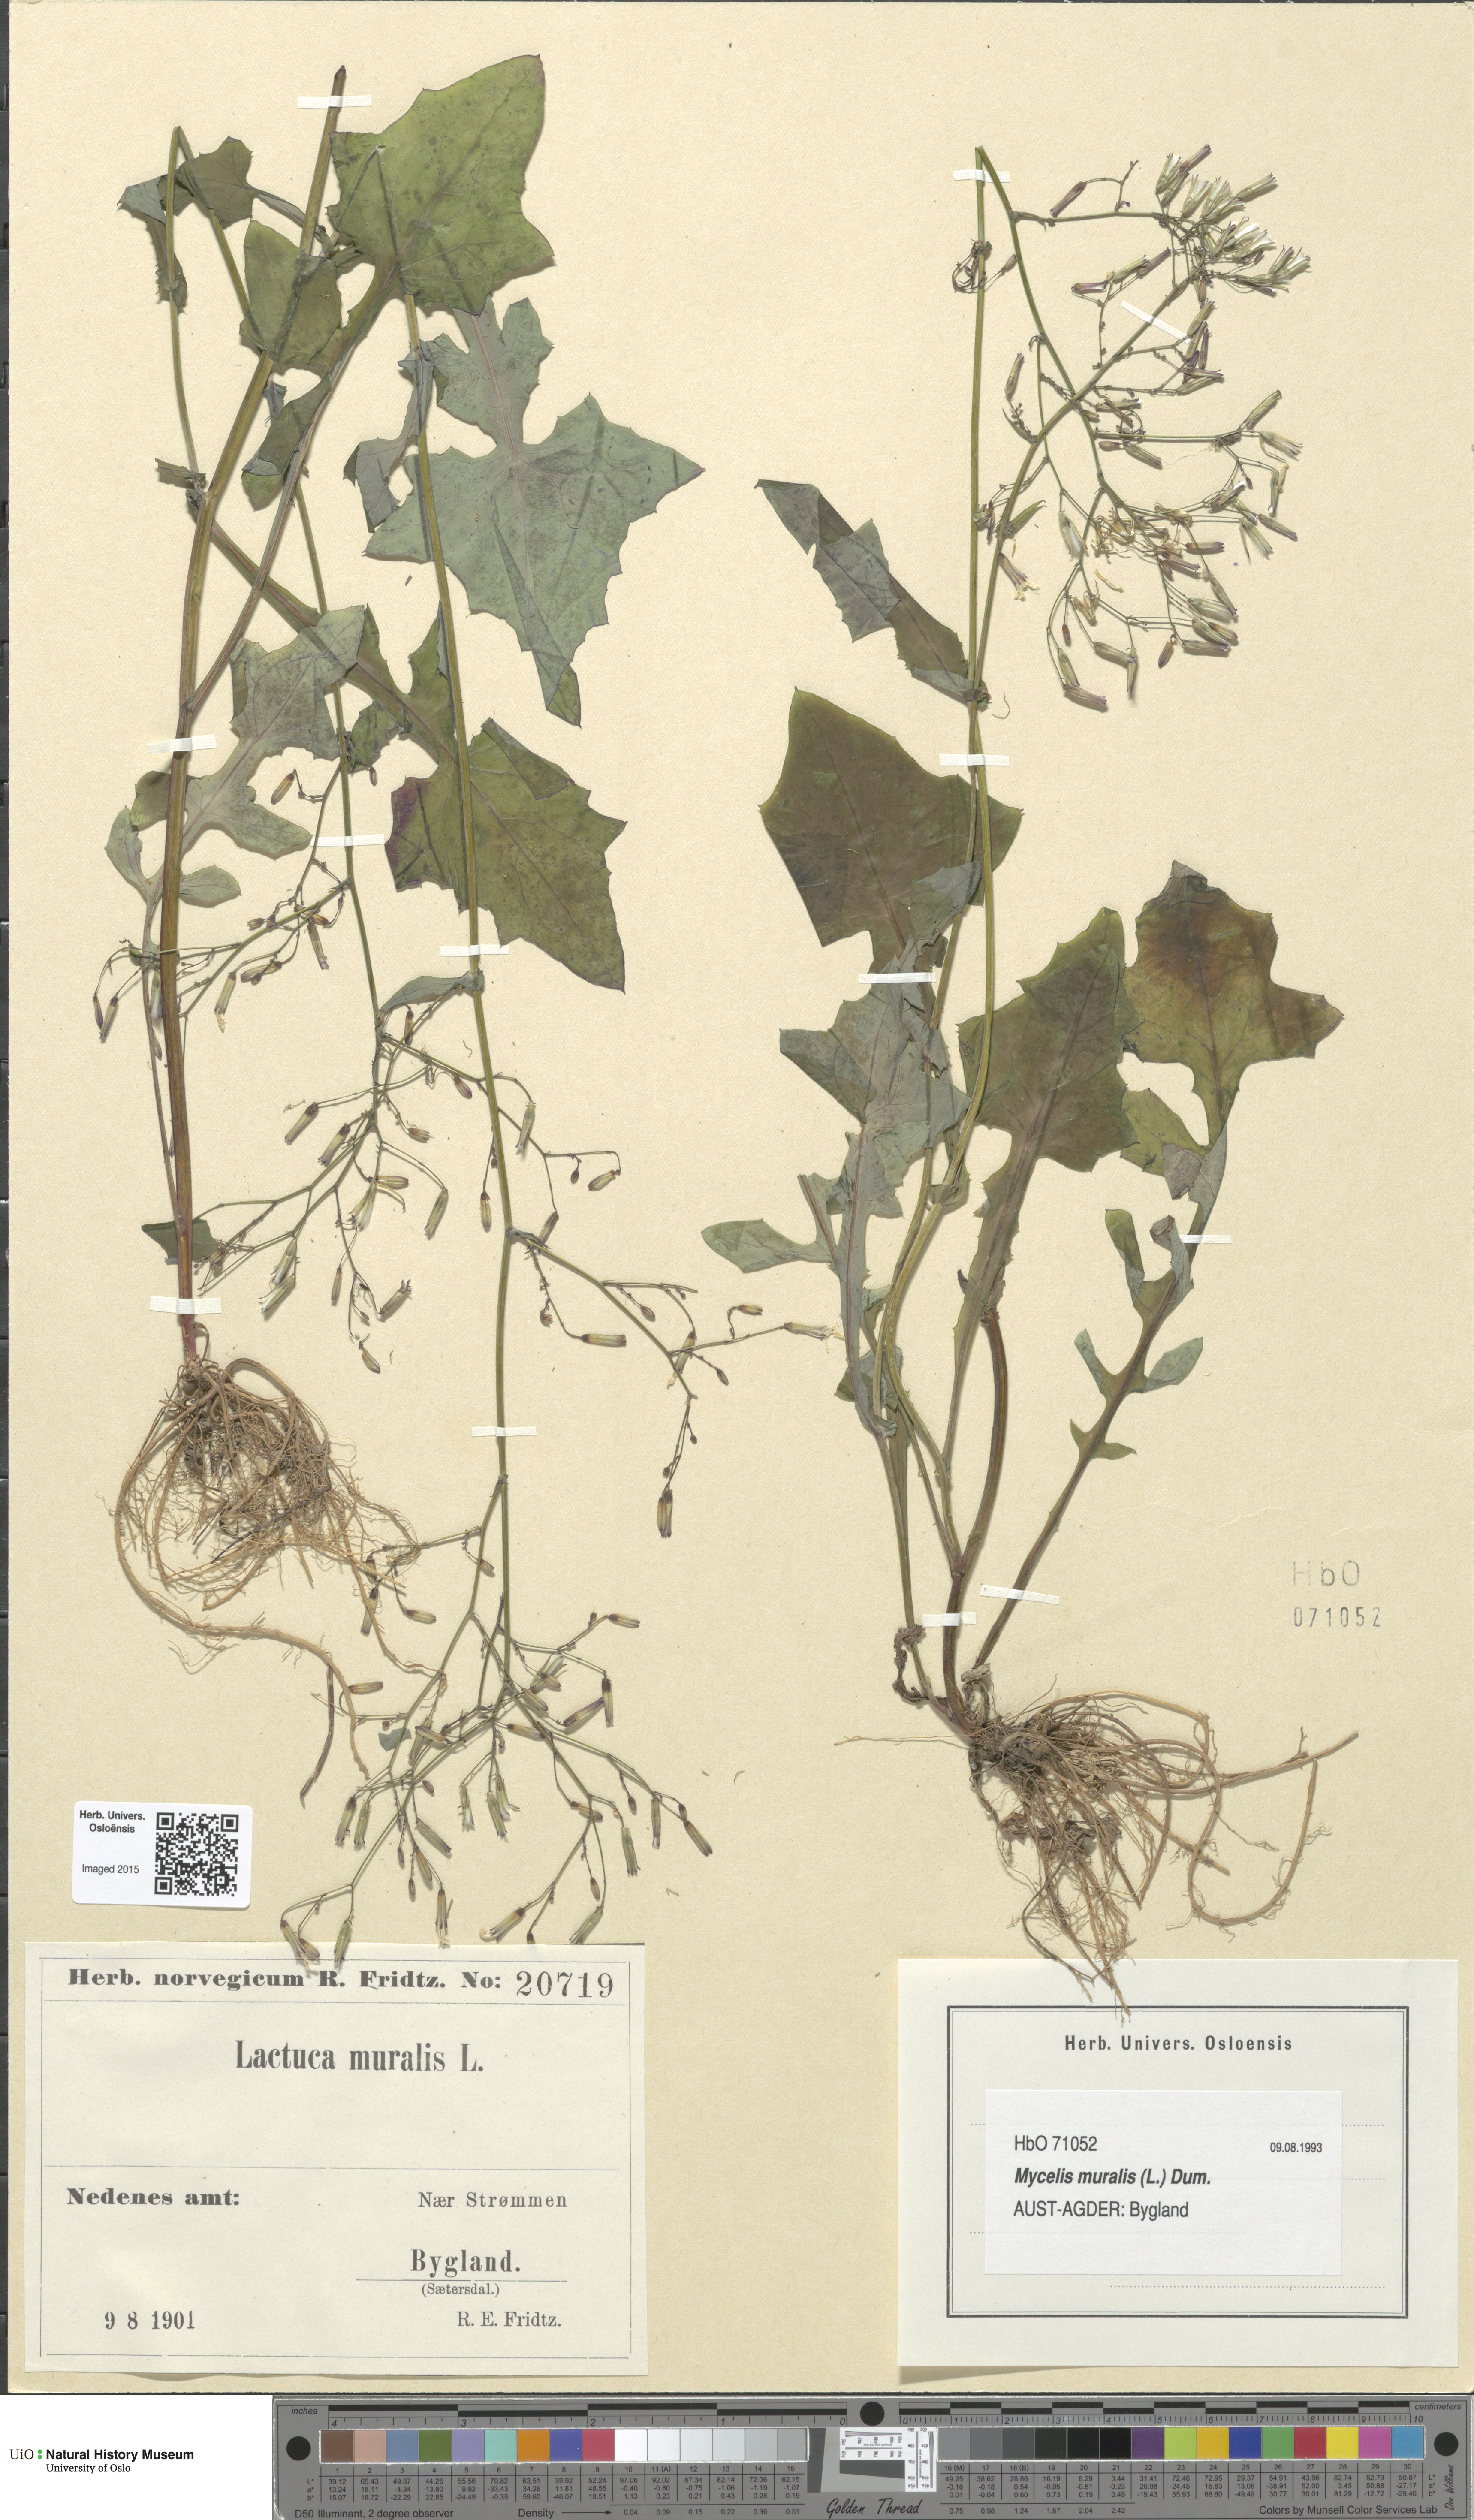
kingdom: Plantae
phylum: Tracheophyta
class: Magnoliopsida
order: Asterales
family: Asteraceae
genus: Mycelis
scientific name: Mycelis muralis
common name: Wall lettuce
